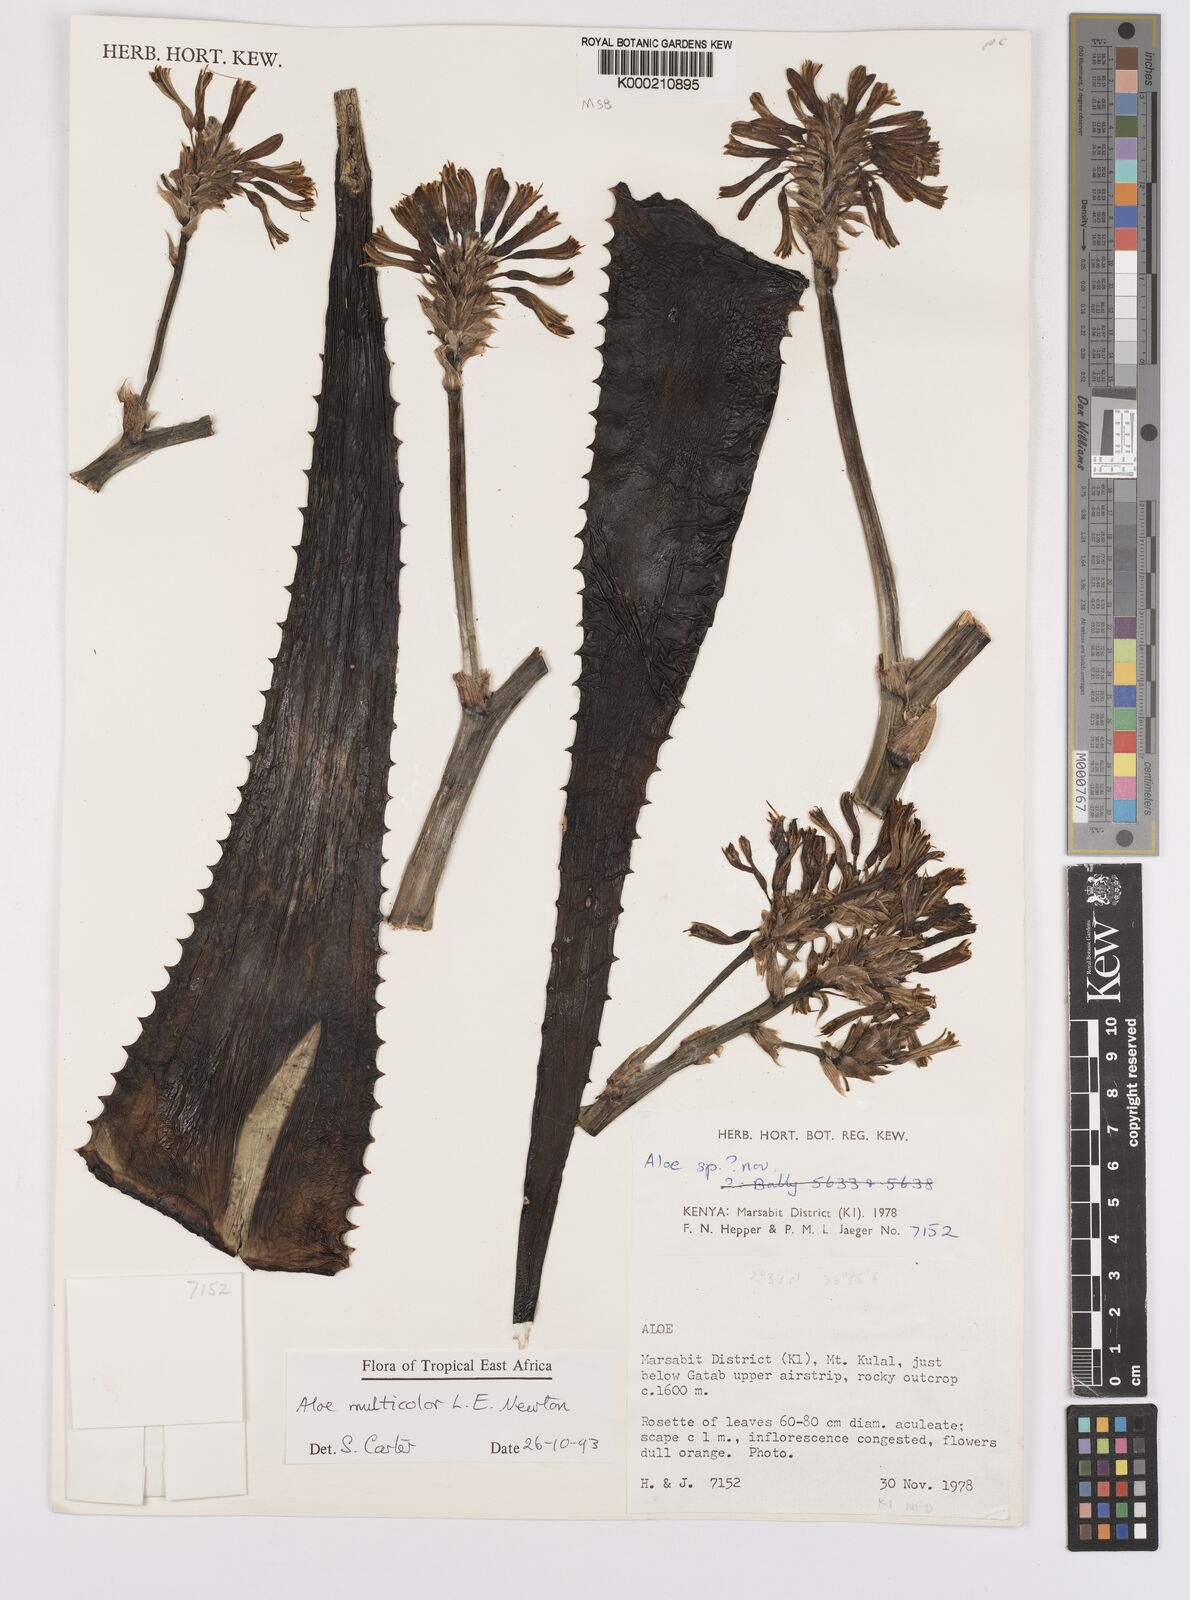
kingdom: Plantae
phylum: Tracheophyta
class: Liliopsida
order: Asparagales
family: Asphodelaceae
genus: Aloe
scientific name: Aloe multicolor
